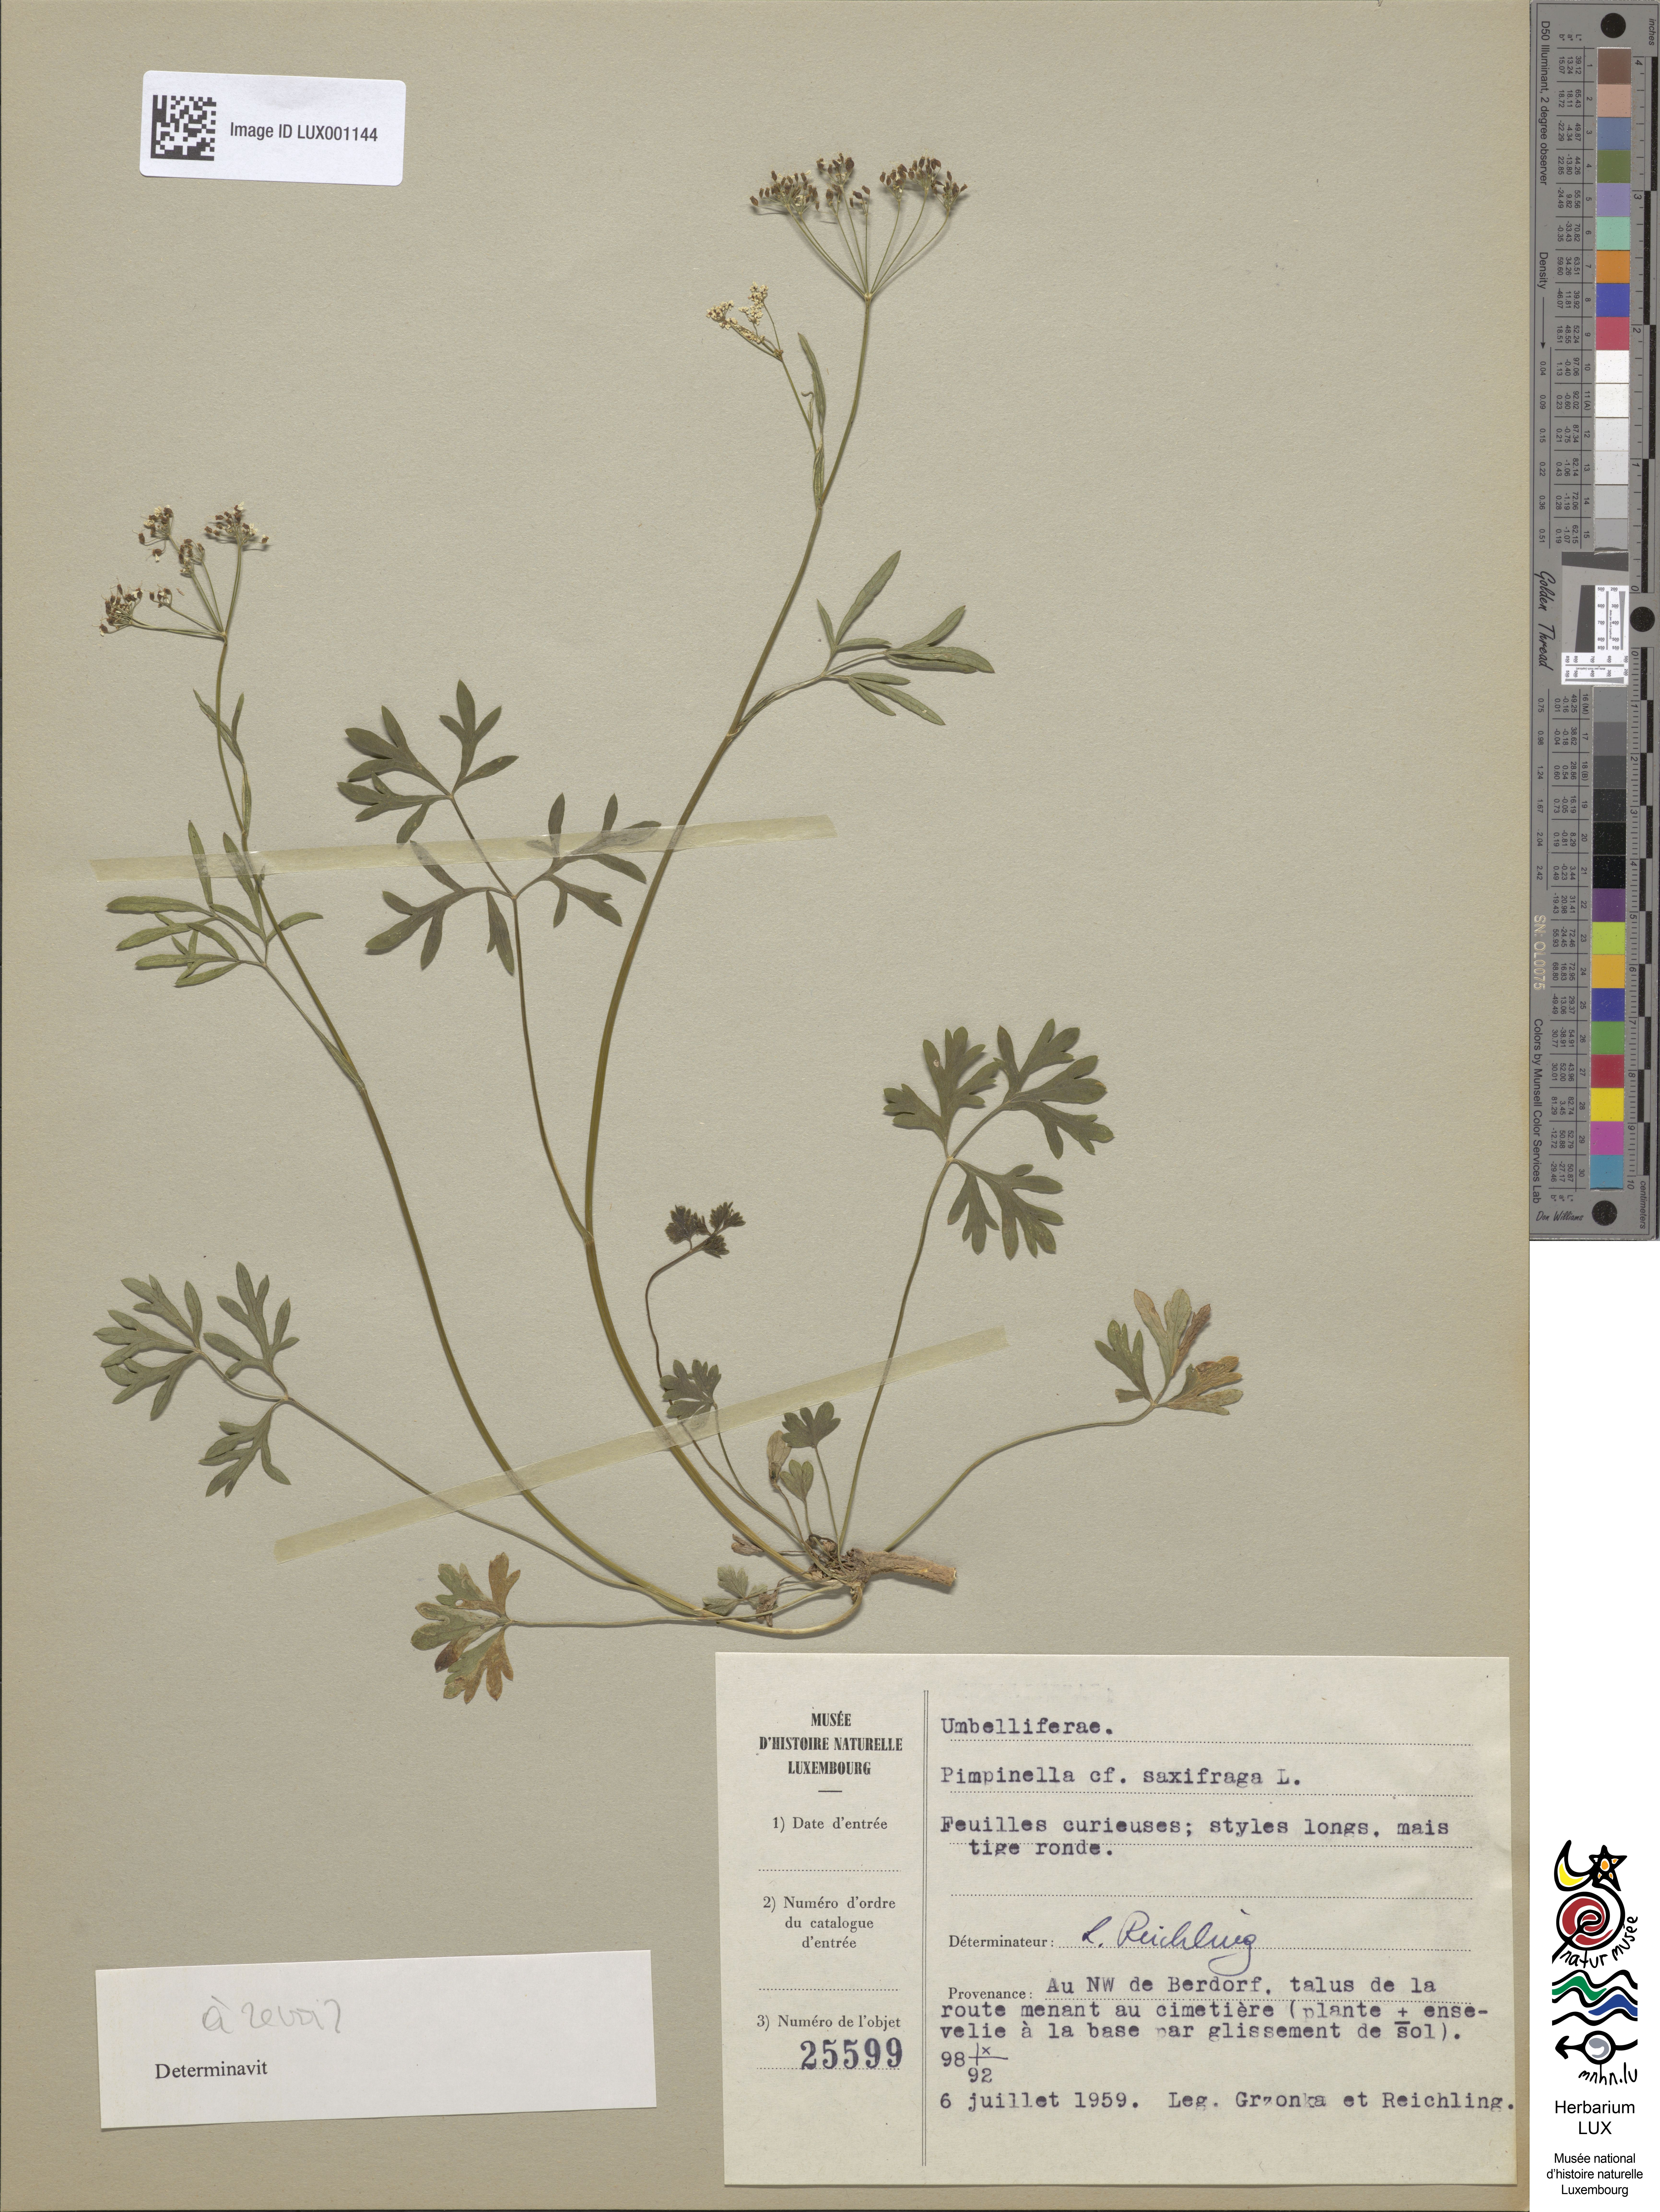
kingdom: Plantae
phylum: Tracheophyta
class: Magnoliopsida
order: Apiales
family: Apiaceae
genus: Pimpinella
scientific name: Pimpinella saxifraga
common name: Burnet-saxifrage
